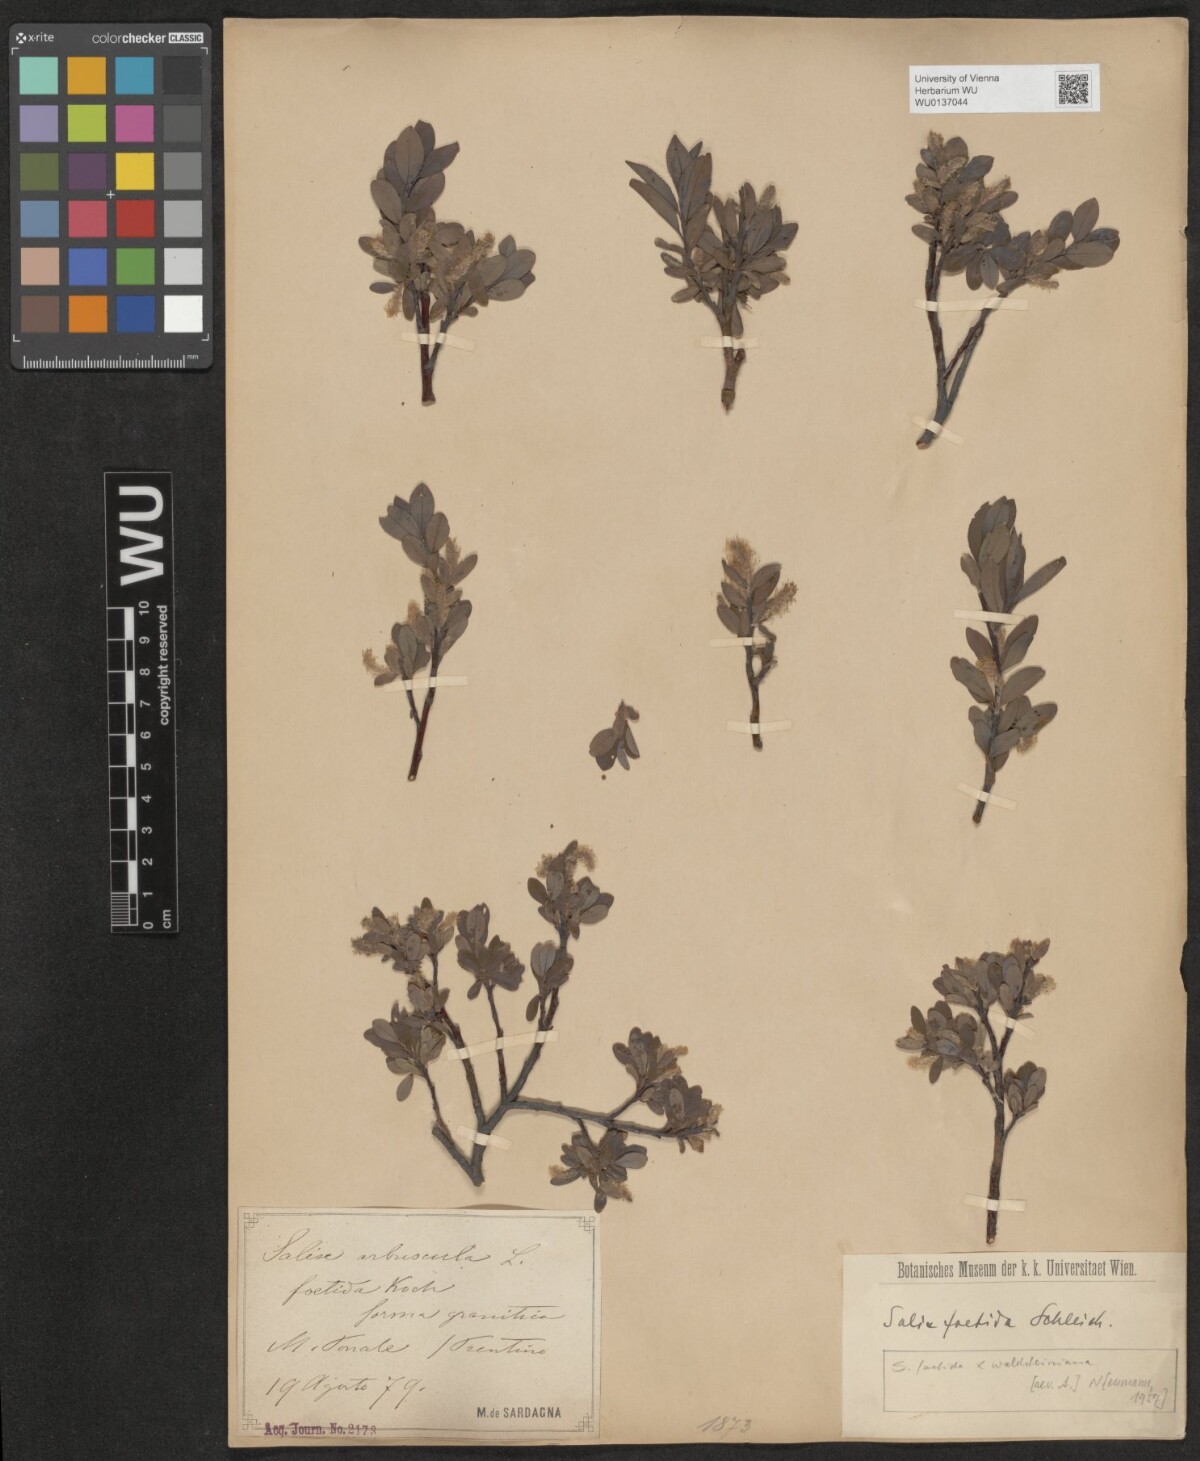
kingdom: Plantae
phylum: Tracheophyta
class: Magnoliopsida
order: Malpighiales
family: Salicaceae
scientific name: Salicaceae
